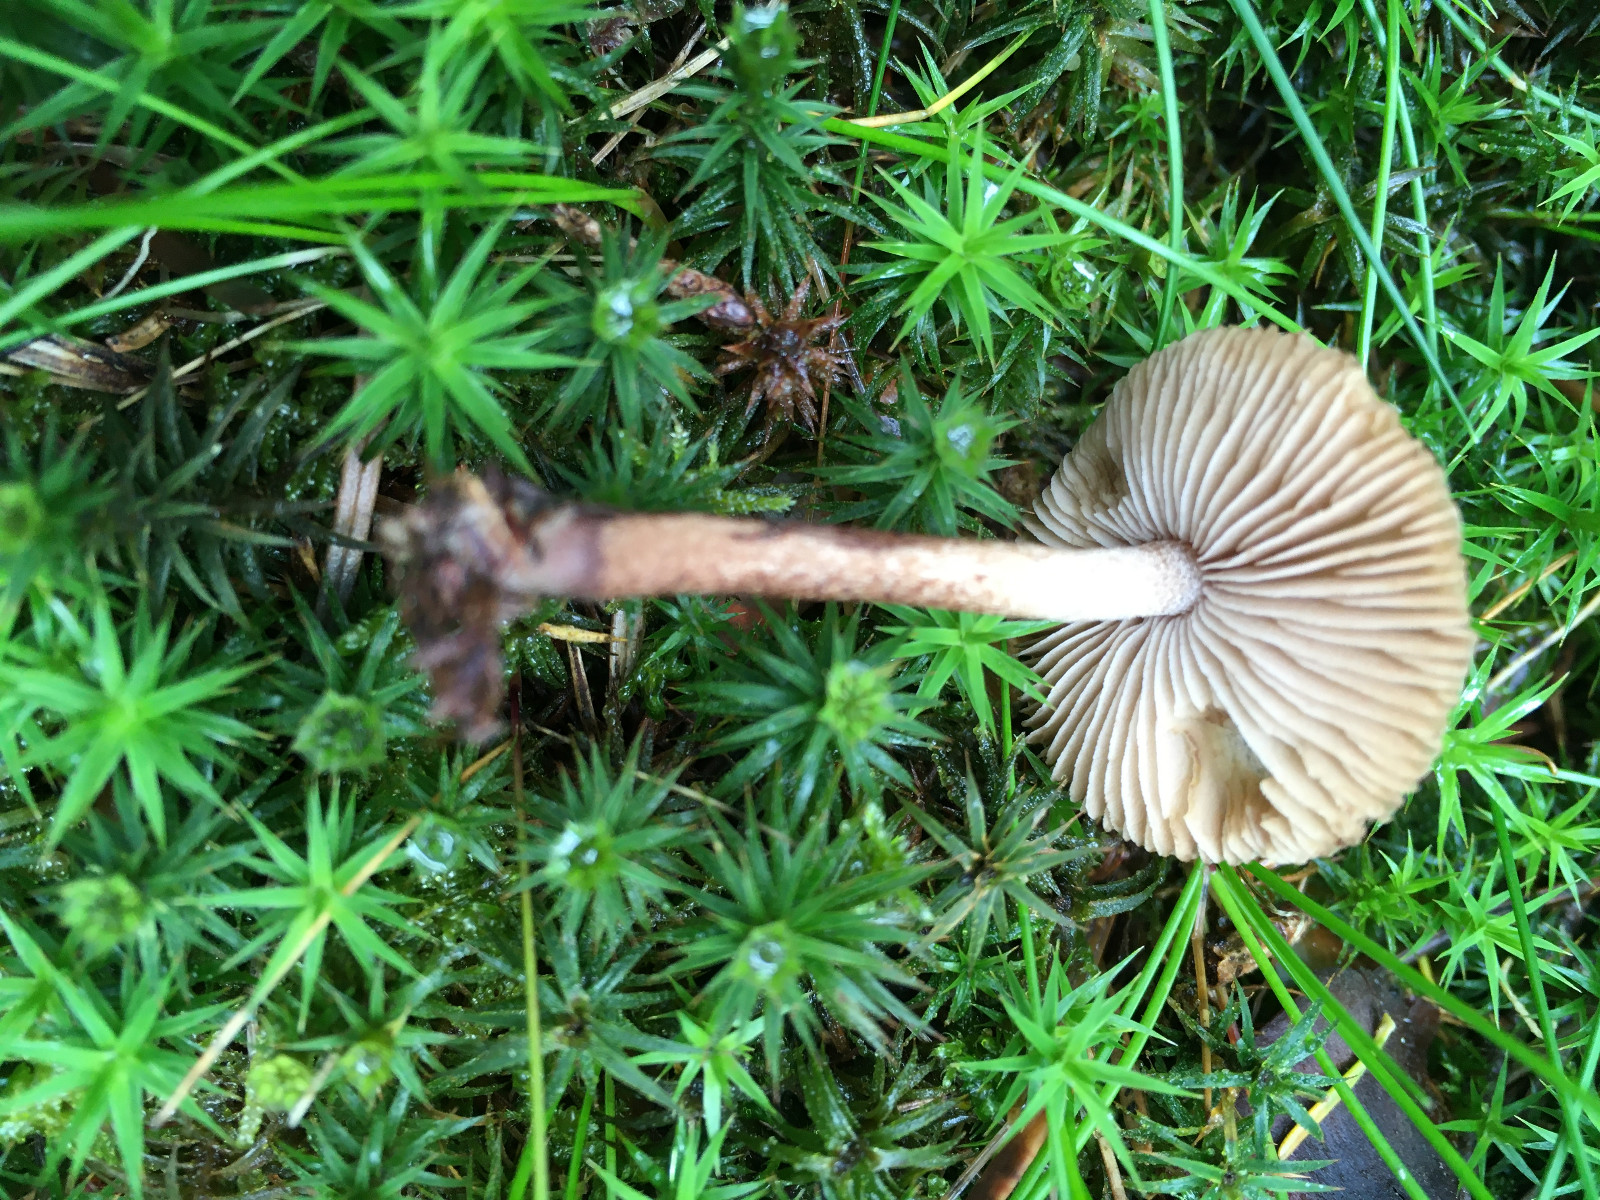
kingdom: Fungi
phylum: Basidiomycota
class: Agaricomycetes
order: Agaricales
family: Inocybaceae
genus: Inocybe
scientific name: Inocybe lanuginosa
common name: uldskællet trævlhat
